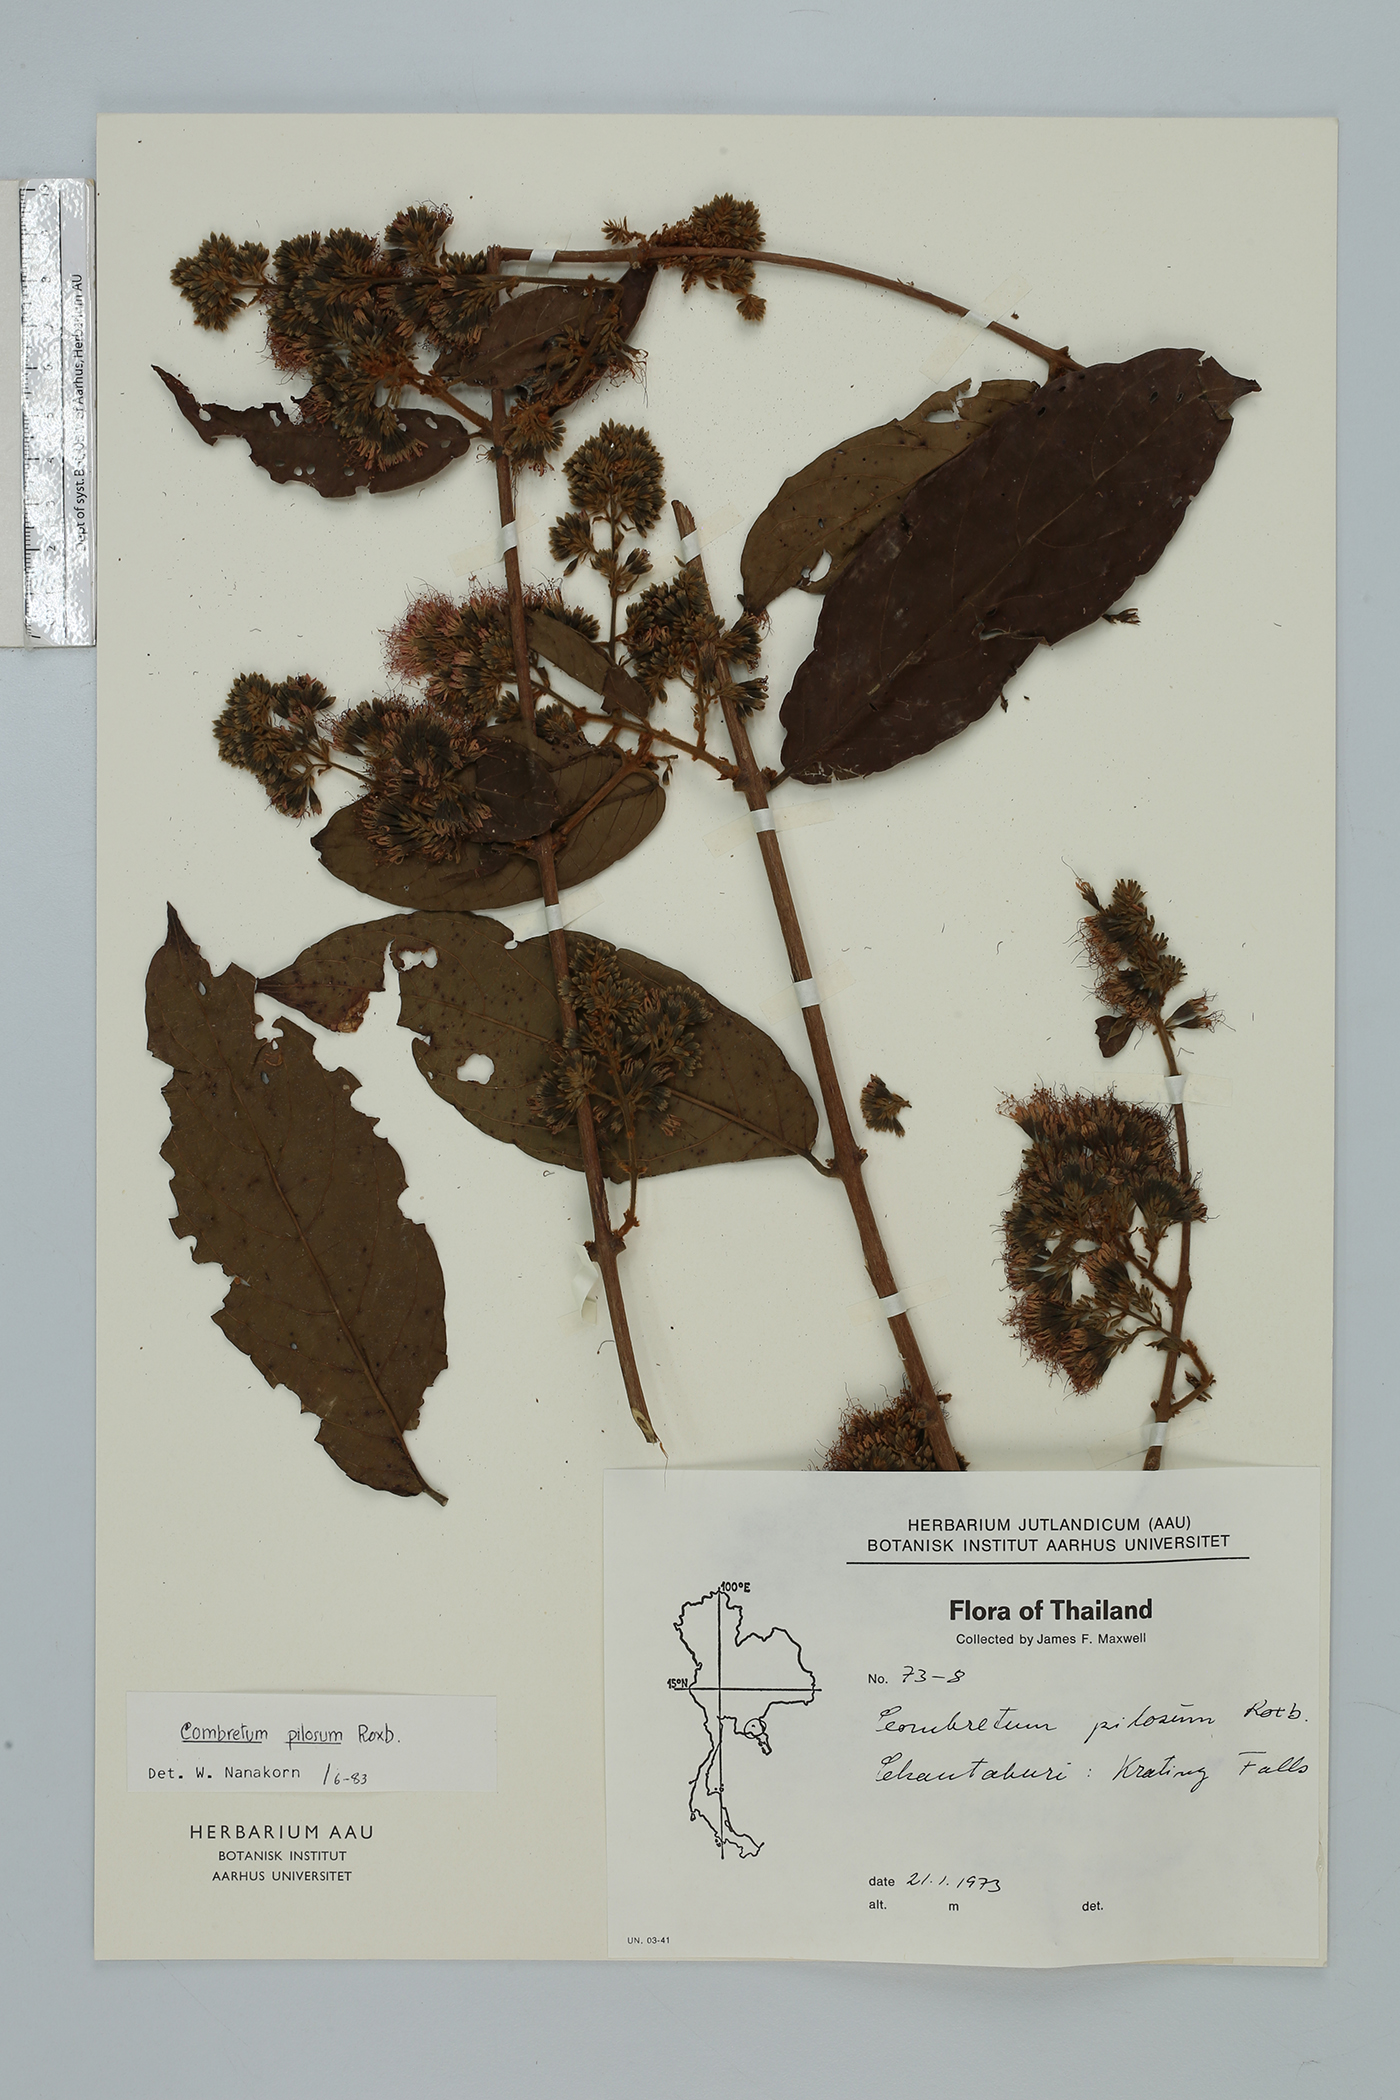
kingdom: Plantae
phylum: Tracheophyta
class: Magnoliopsida
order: Myrtales
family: Combretaceae
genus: Combretum
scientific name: Combretum pilosum
